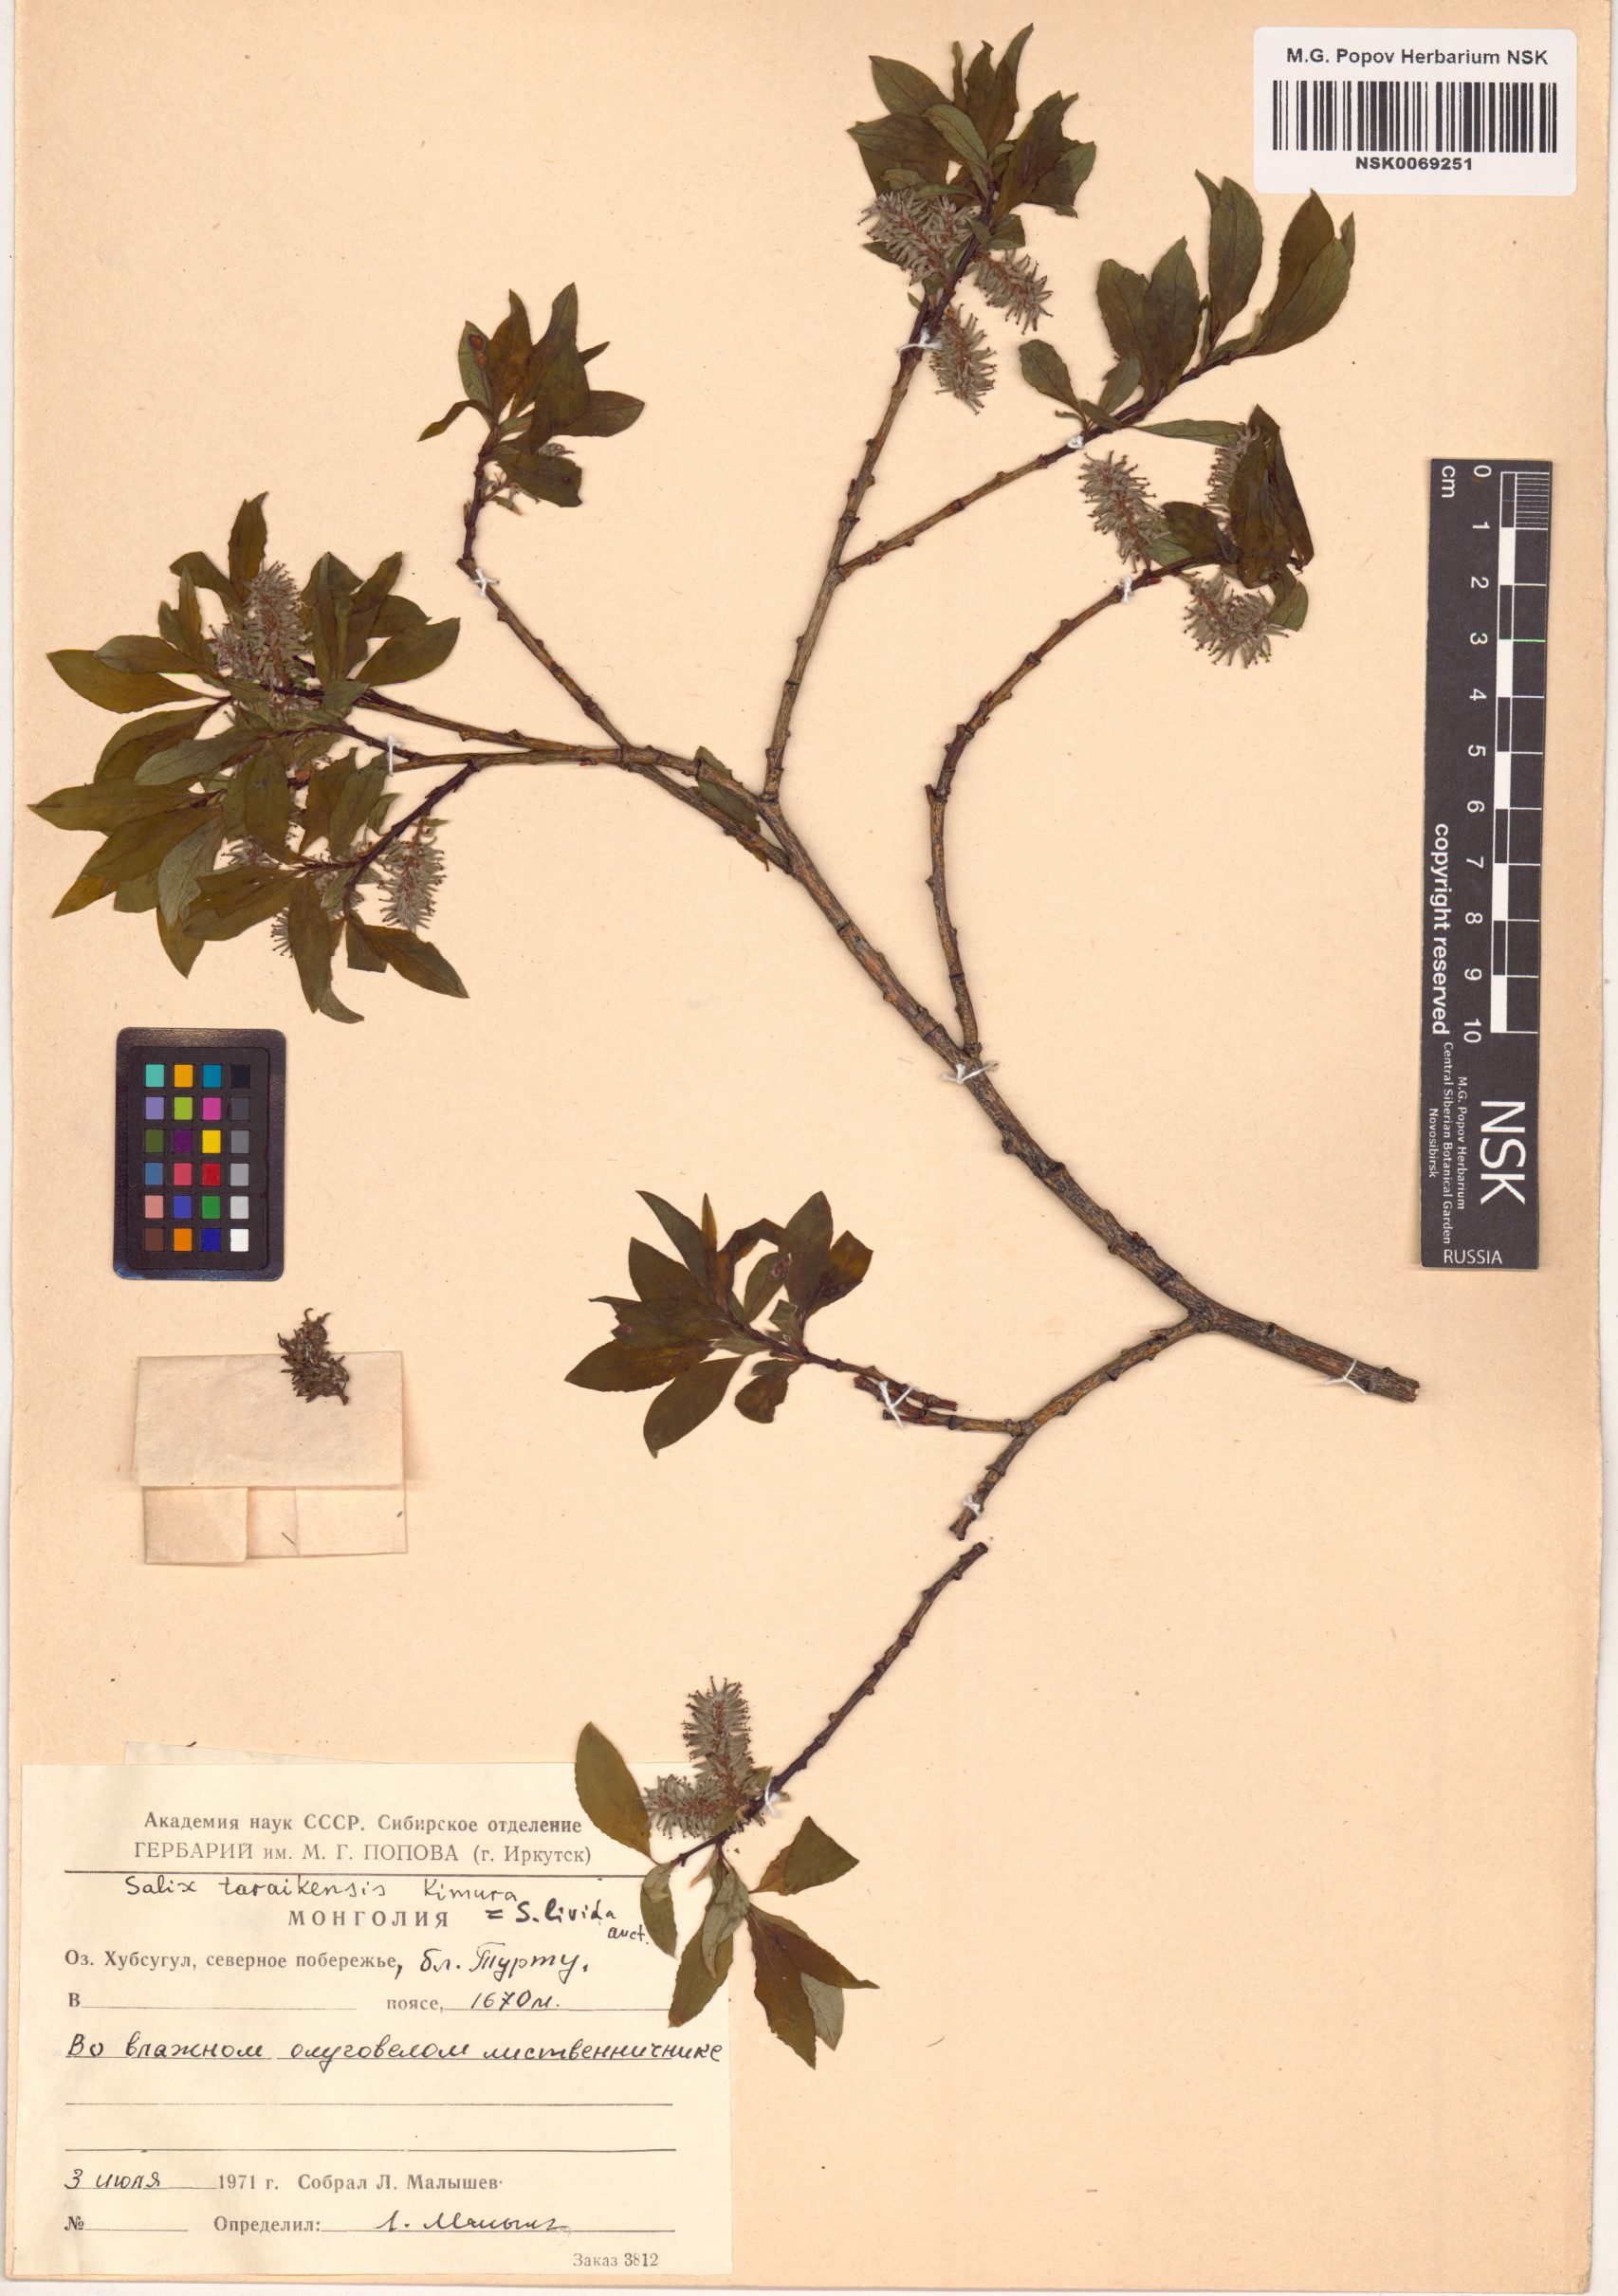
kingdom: Plantae
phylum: Tracheophyta
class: Magnoliopsida
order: Malpighiales
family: Salicaceae
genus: Salix
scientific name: Salix taraikensis
